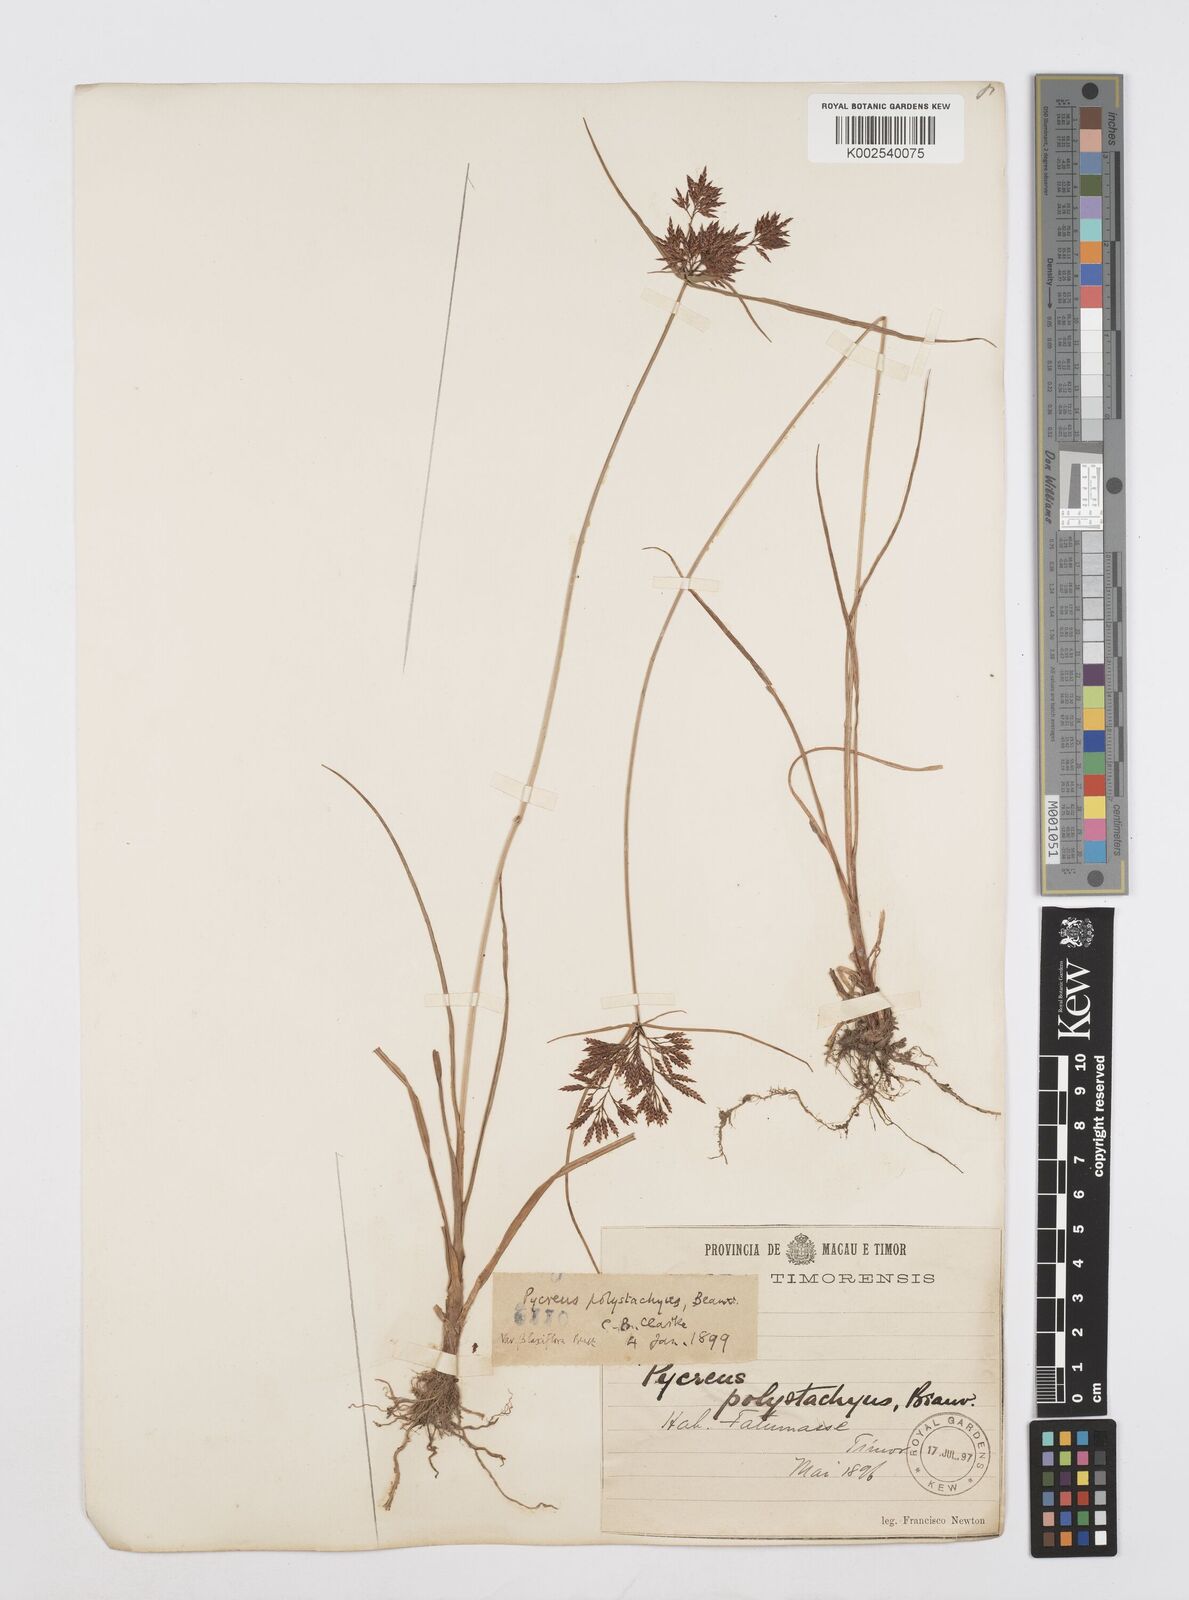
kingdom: Plantae
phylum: Tracheophyta
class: Liliopsida
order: Poales
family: Cyperaceae
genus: Cyperus
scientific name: Cyperus polystachyos
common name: Bunchy flat sedge
